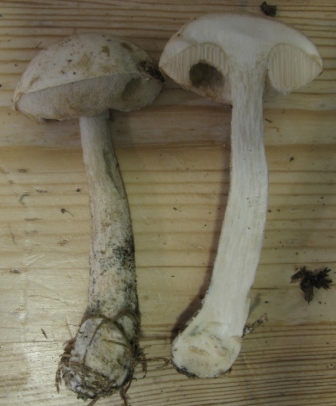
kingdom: Fungi
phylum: Basidiomycota
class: Agaricomycetes
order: Boletales
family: Boletaceae
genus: Leccinum
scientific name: Leccinum scabrum
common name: hvid skælrørhat
